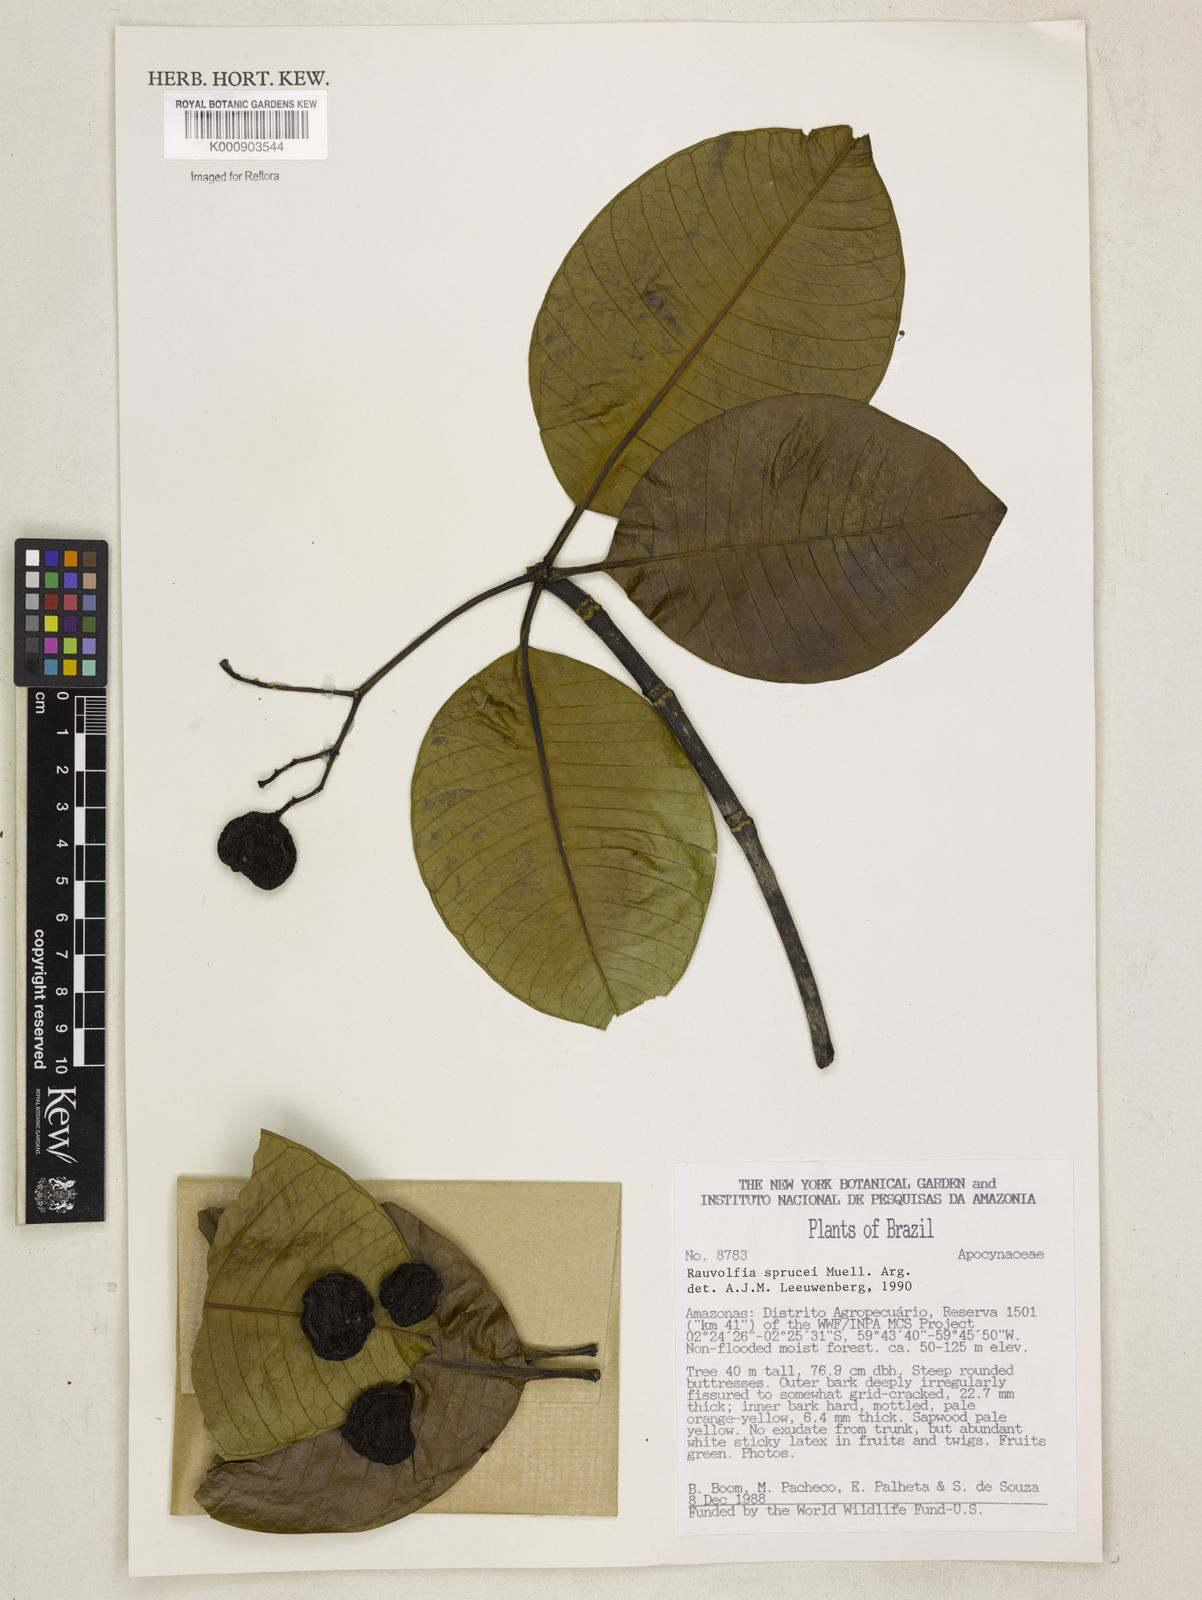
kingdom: Plantae
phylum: Tracheophyta
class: Magnoliopsida
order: Gentianales
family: Apocynaceae
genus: Rauvolfia
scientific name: Rauvolfia
